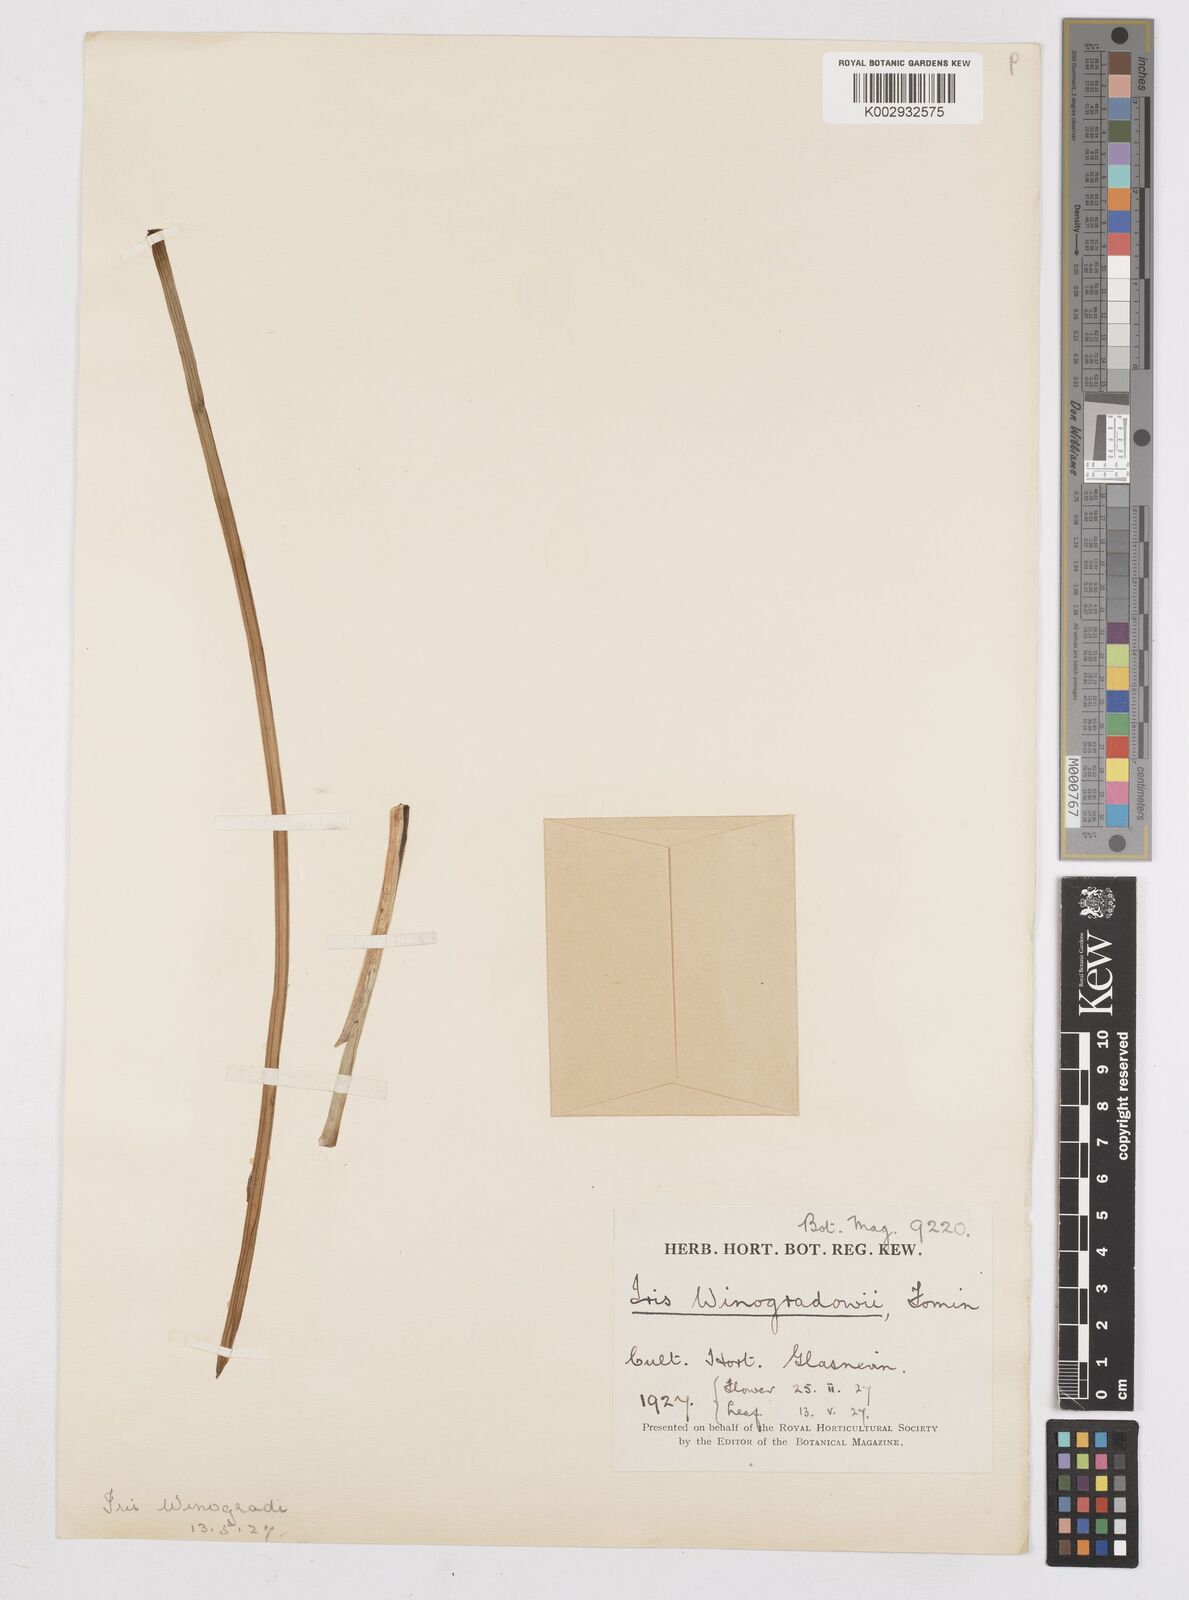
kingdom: Plantae
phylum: Tracheophyta
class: Liliopsida
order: Asparagales
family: Iridaceae
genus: Iris
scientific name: Iris winogradowii
